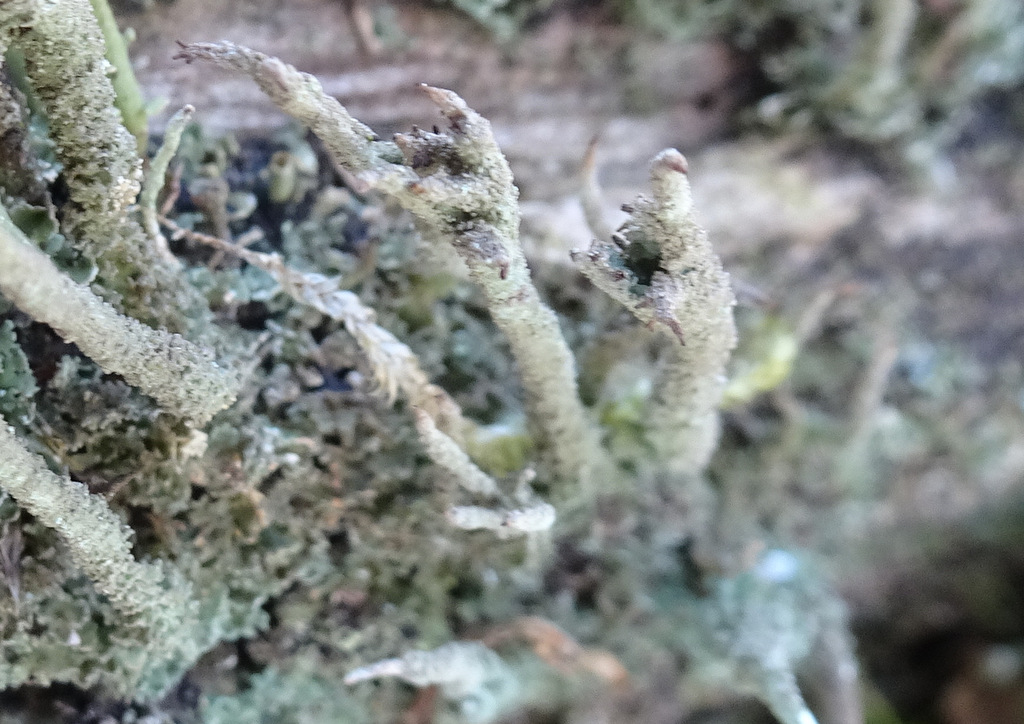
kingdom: Fungi
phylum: Ascomycota
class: Lecanoromycetes
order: Lecanorales
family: Cladoniaceae
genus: Cladonia
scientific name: Cladonia glauca
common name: grågrøn bægerlav
